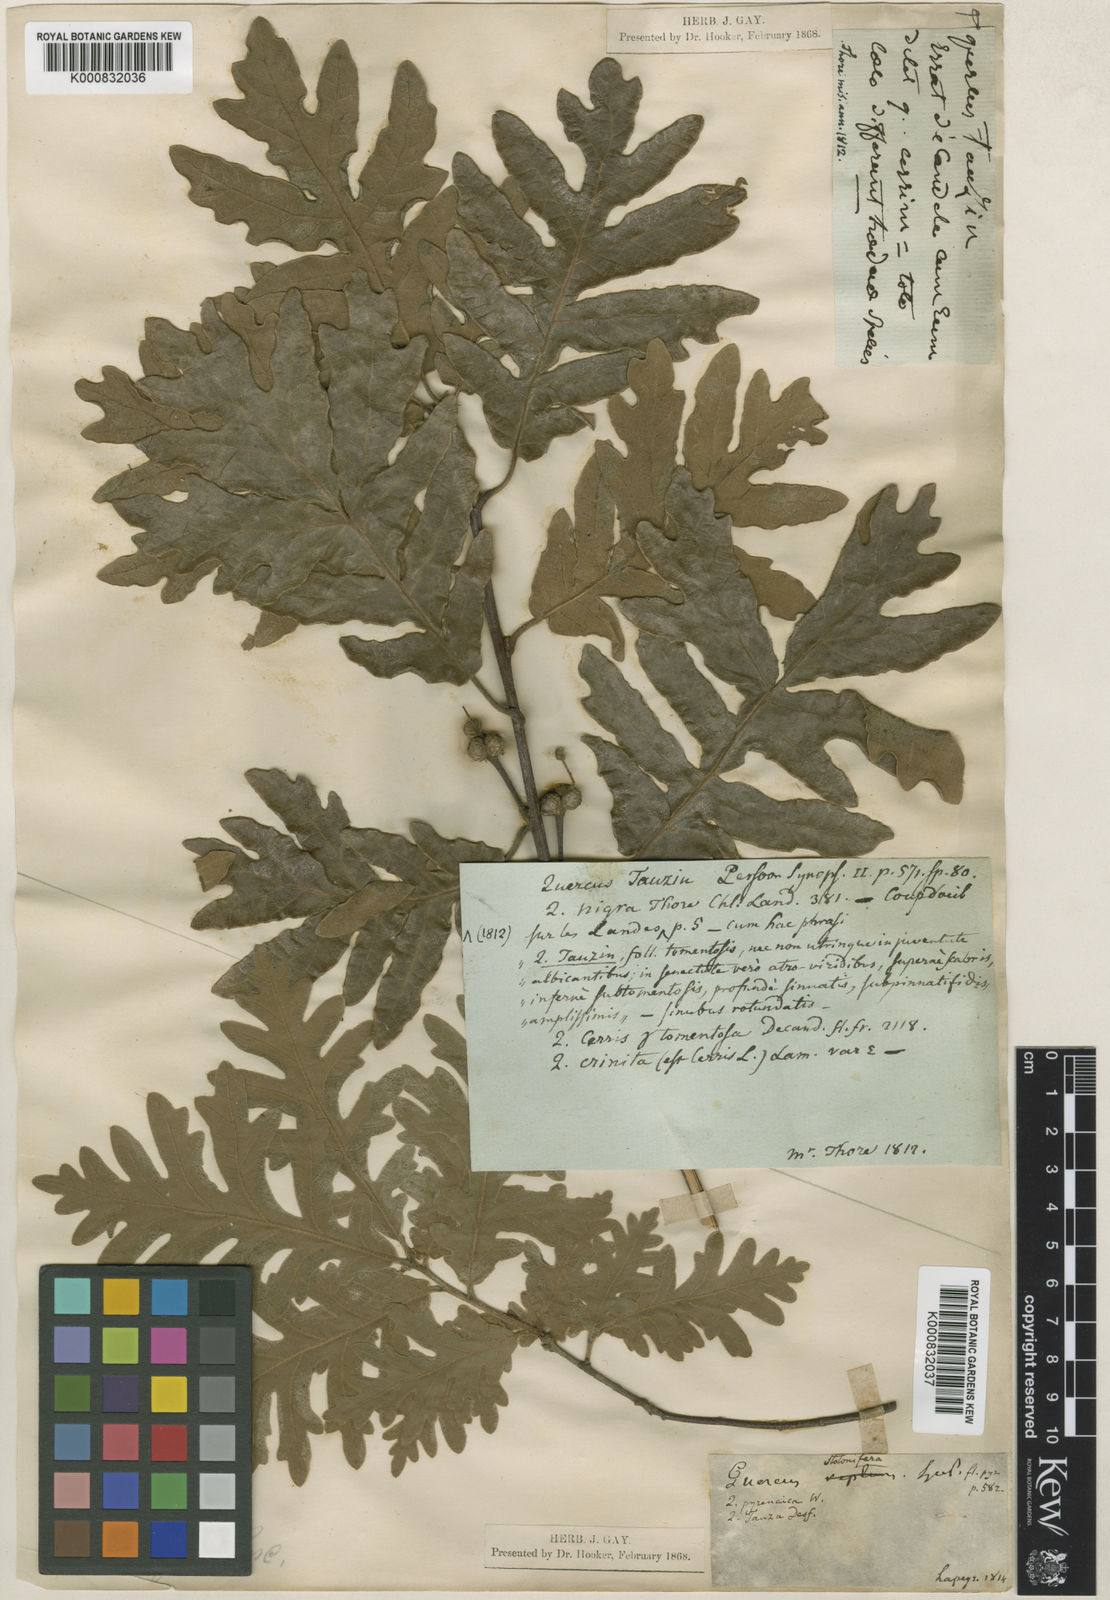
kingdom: Plantae
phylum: Tracheophyta
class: Magnoliopsida
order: Fagales
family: Fagaceae
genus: Quercus
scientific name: Quercus pyrenaica
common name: Pyrenean oak
